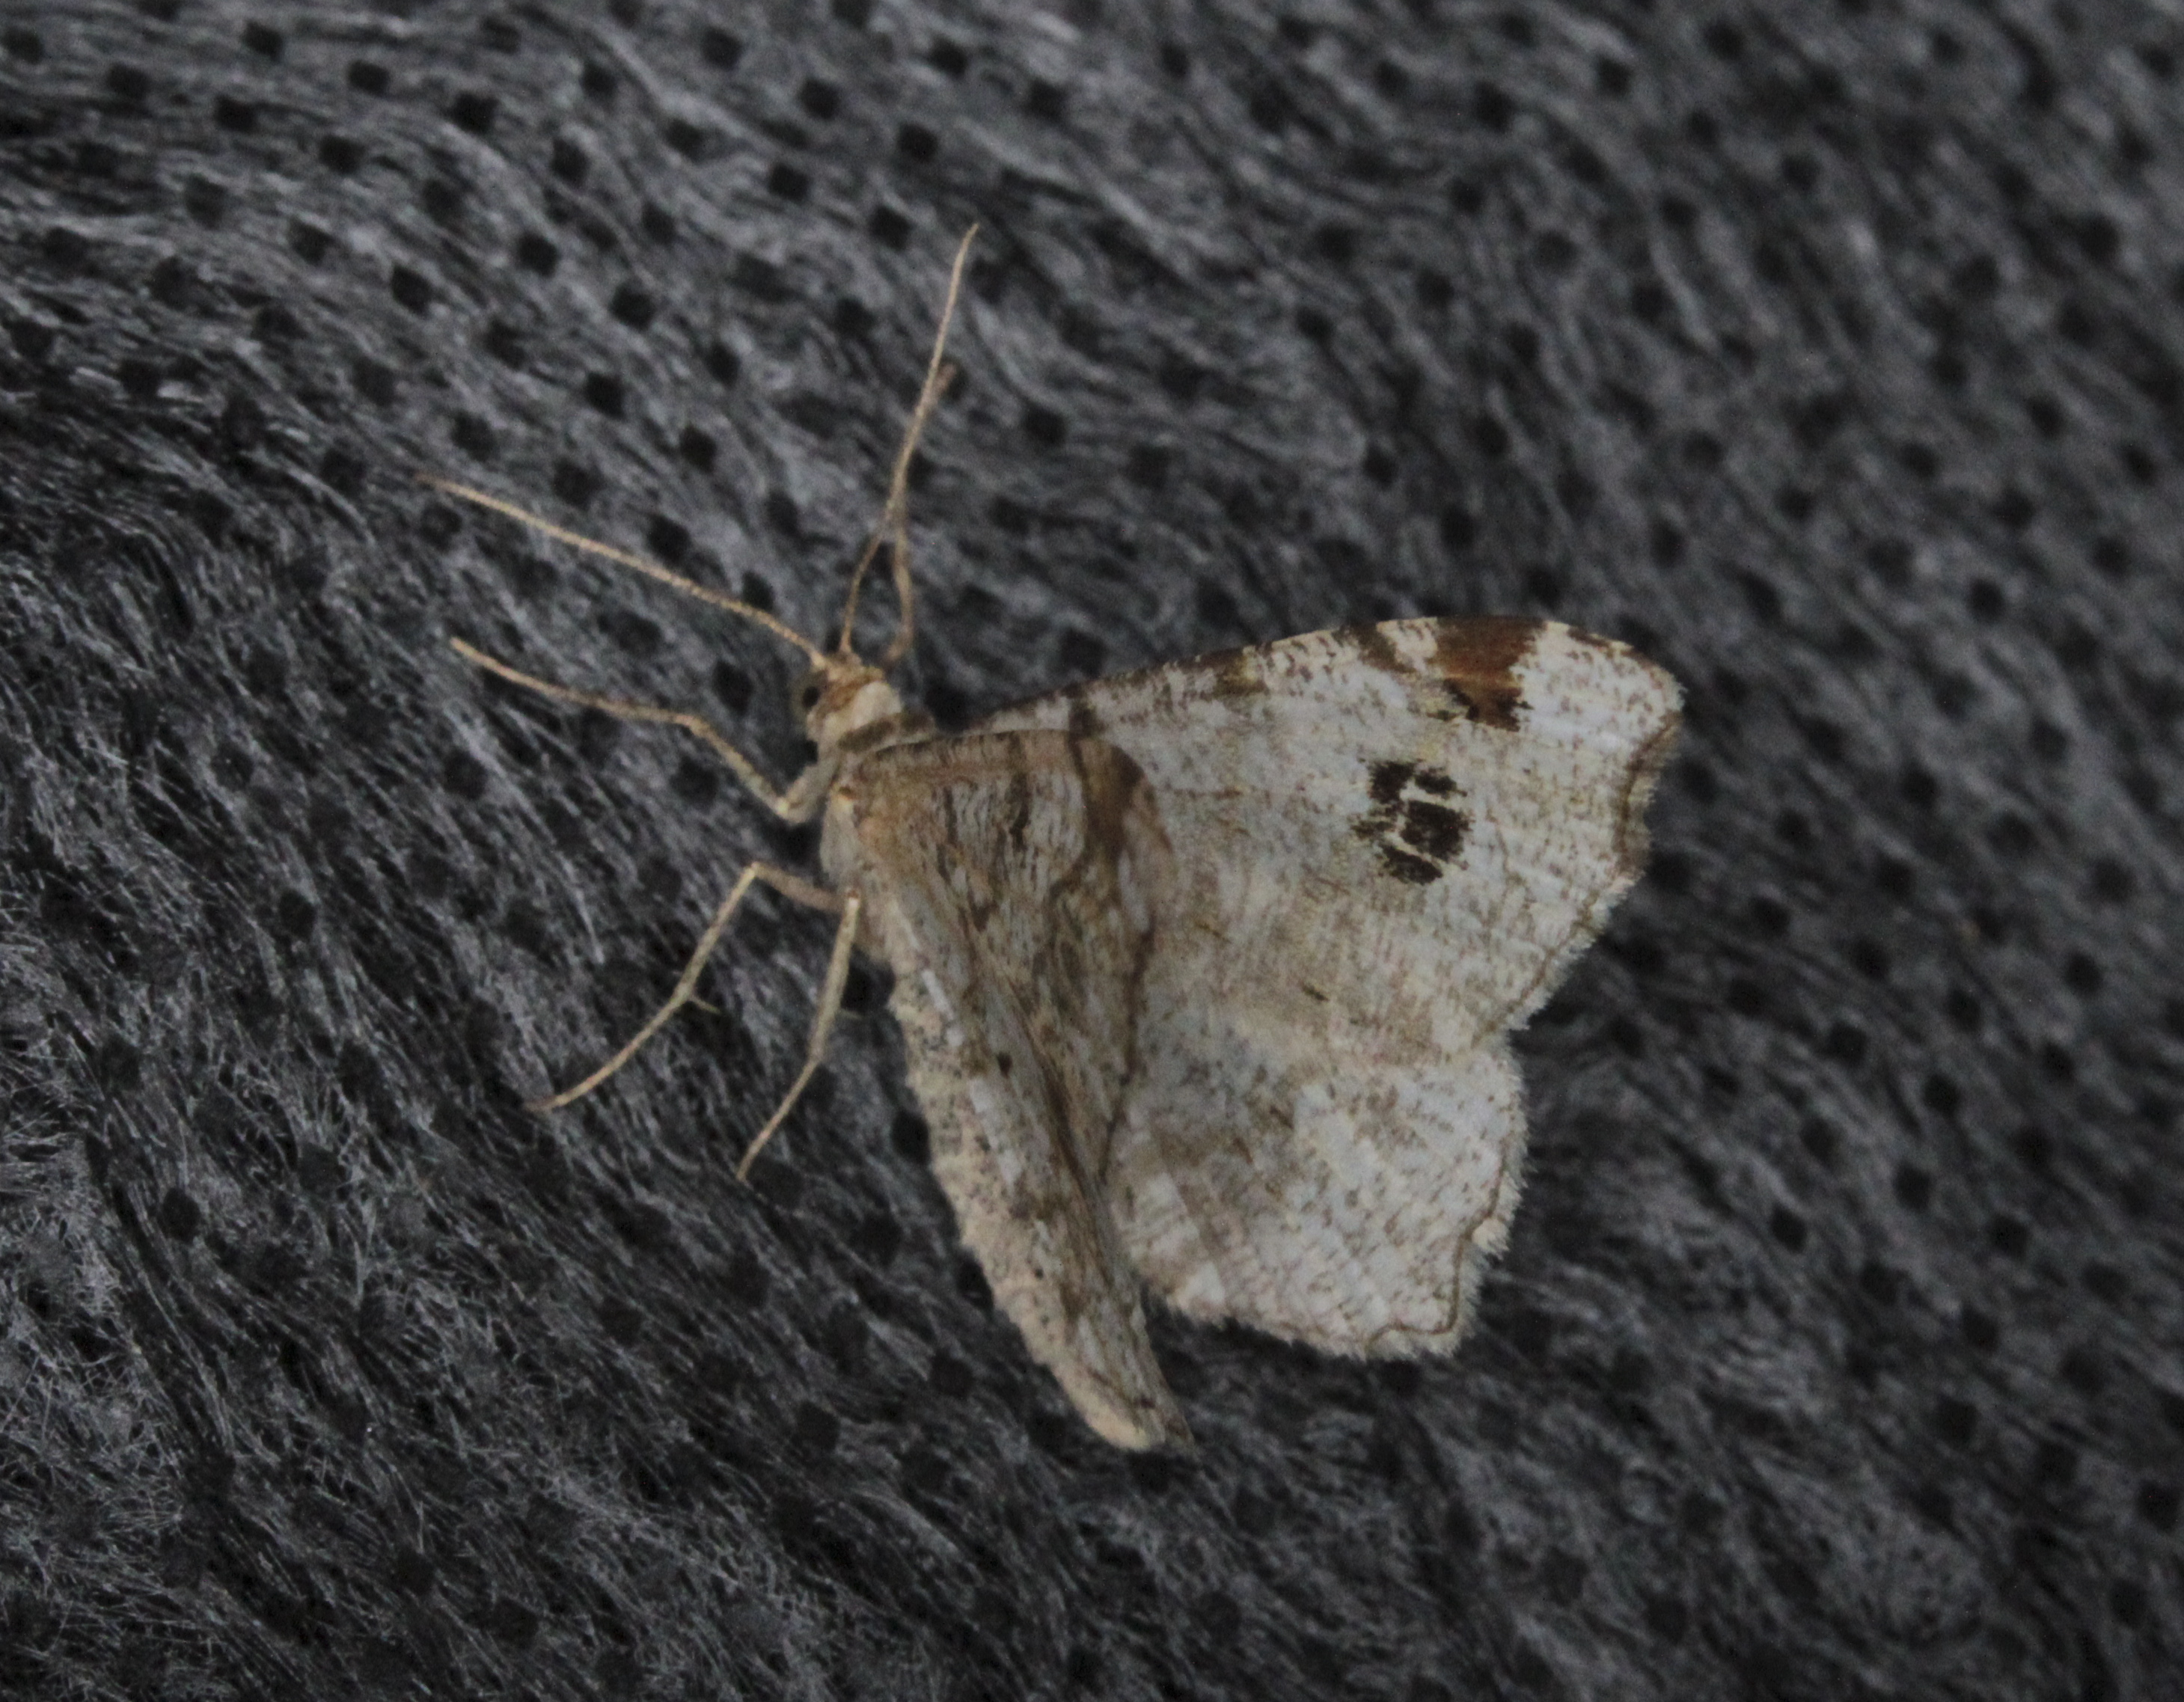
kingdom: Animalia
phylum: Arthropoda
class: Insecta
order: Lepidoptera
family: Geometridae
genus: Macaria
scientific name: Macaria notata
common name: Peacock moth
